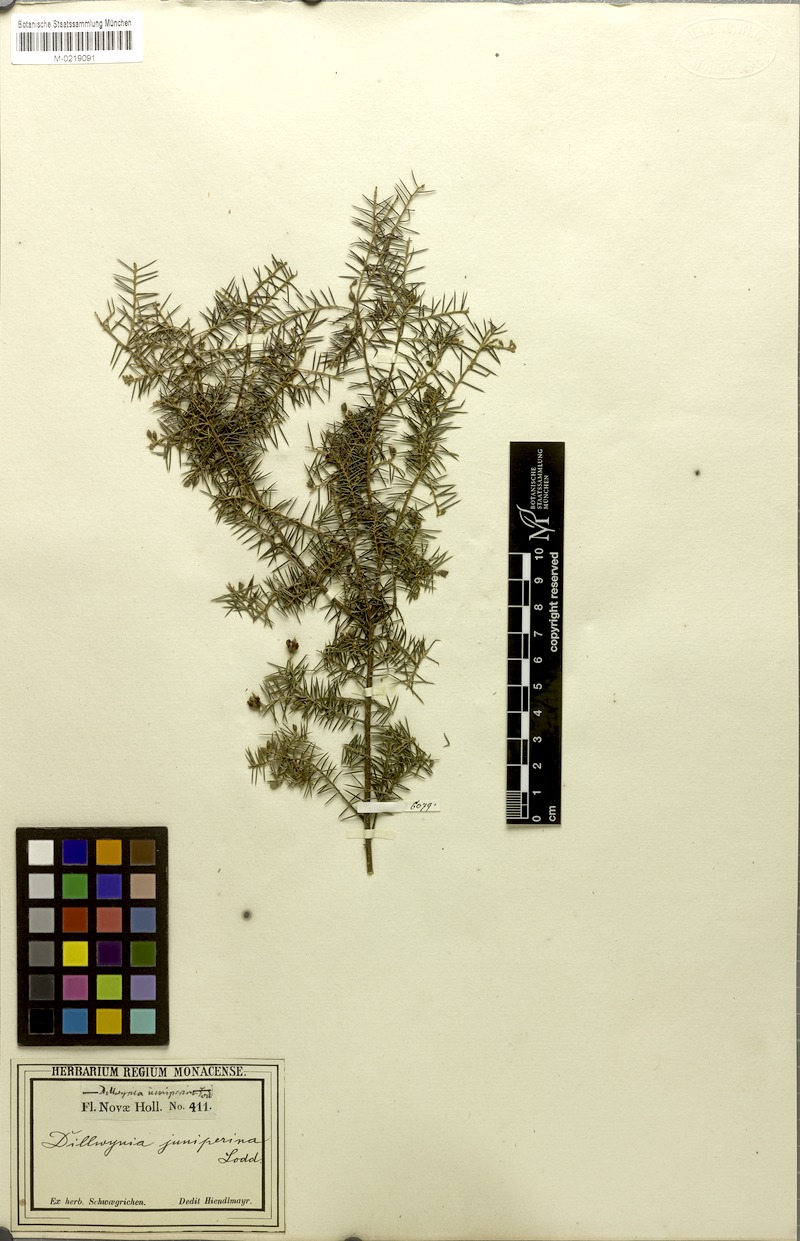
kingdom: Plantae
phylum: Tracheophyta
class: Magnoliopsida
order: Fabales
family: Fabaceae
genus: Dillwynia
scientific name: Dillwynia juniperina
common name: Prickly parrot pea
